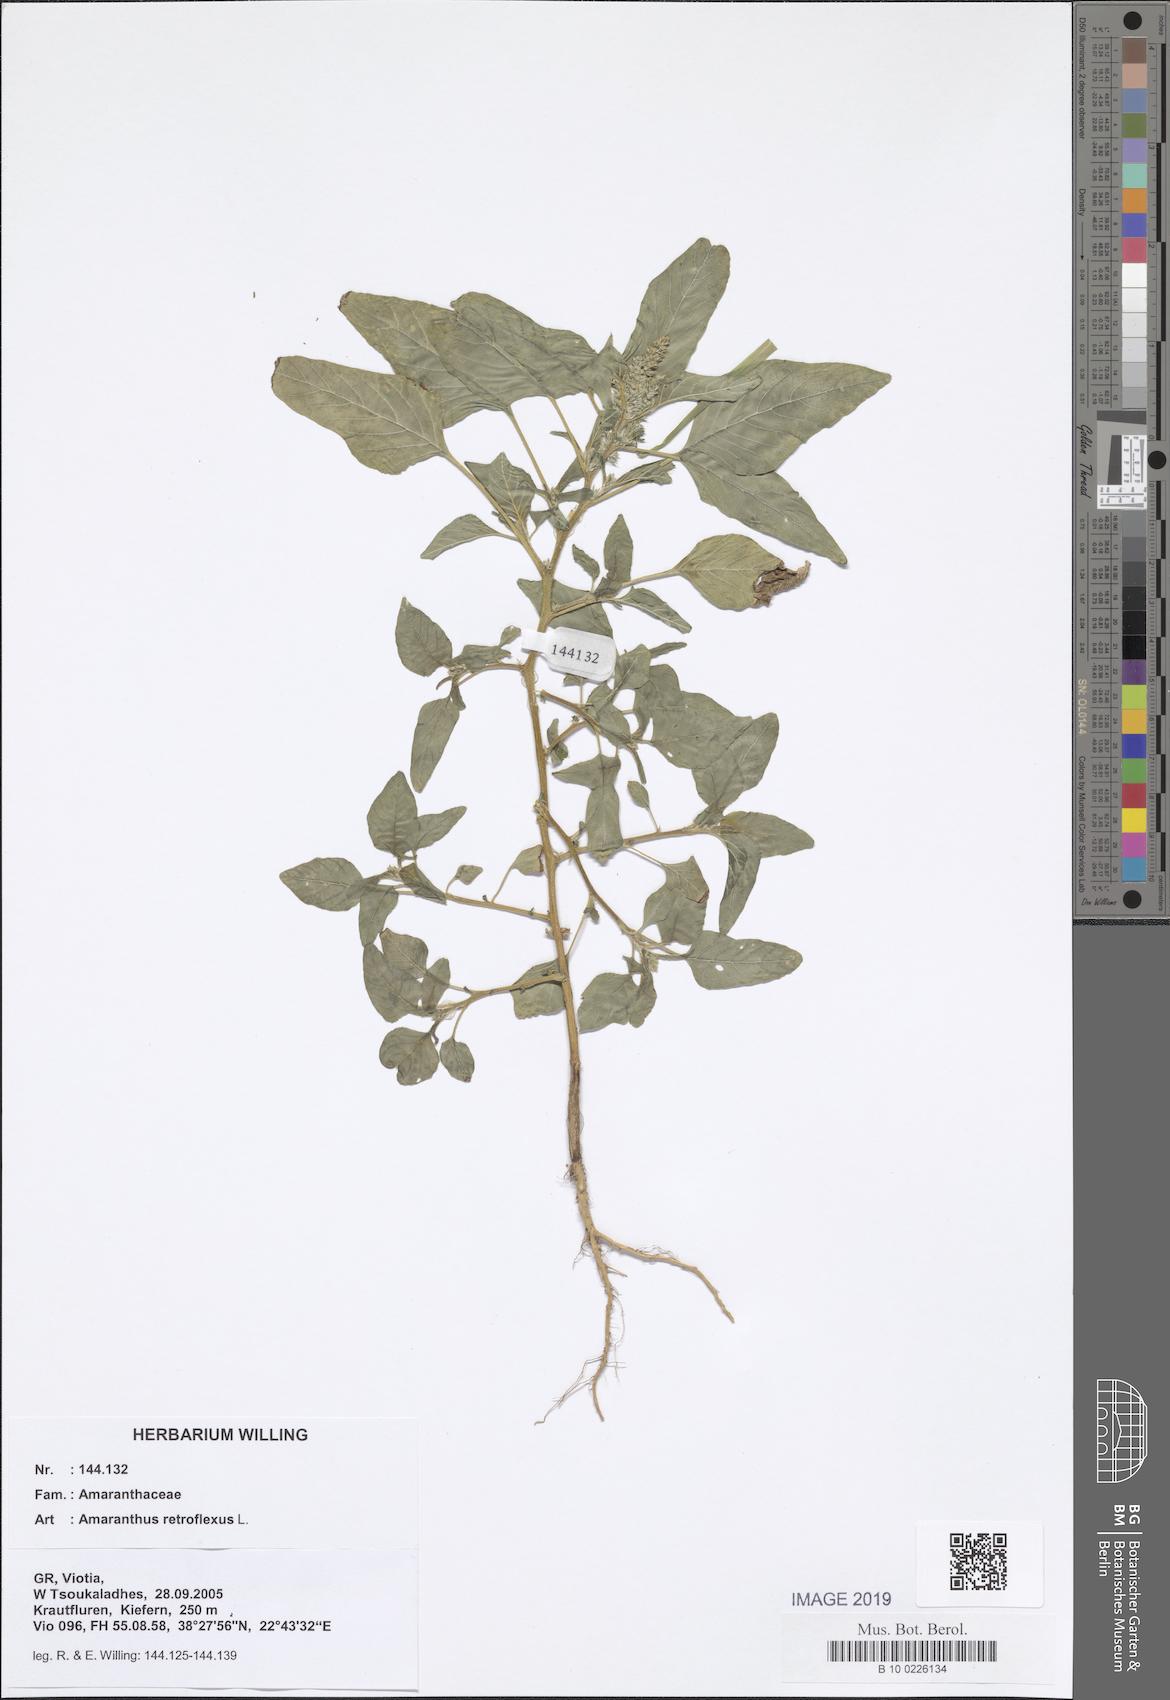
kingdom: Plantae
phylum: Tracheophyta
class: Magnoliopsida
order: Caryophyllales
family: Amaranthaceae
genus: Amaranthus
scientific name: Amaranthus retroflexus
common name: Redroot amaranth
